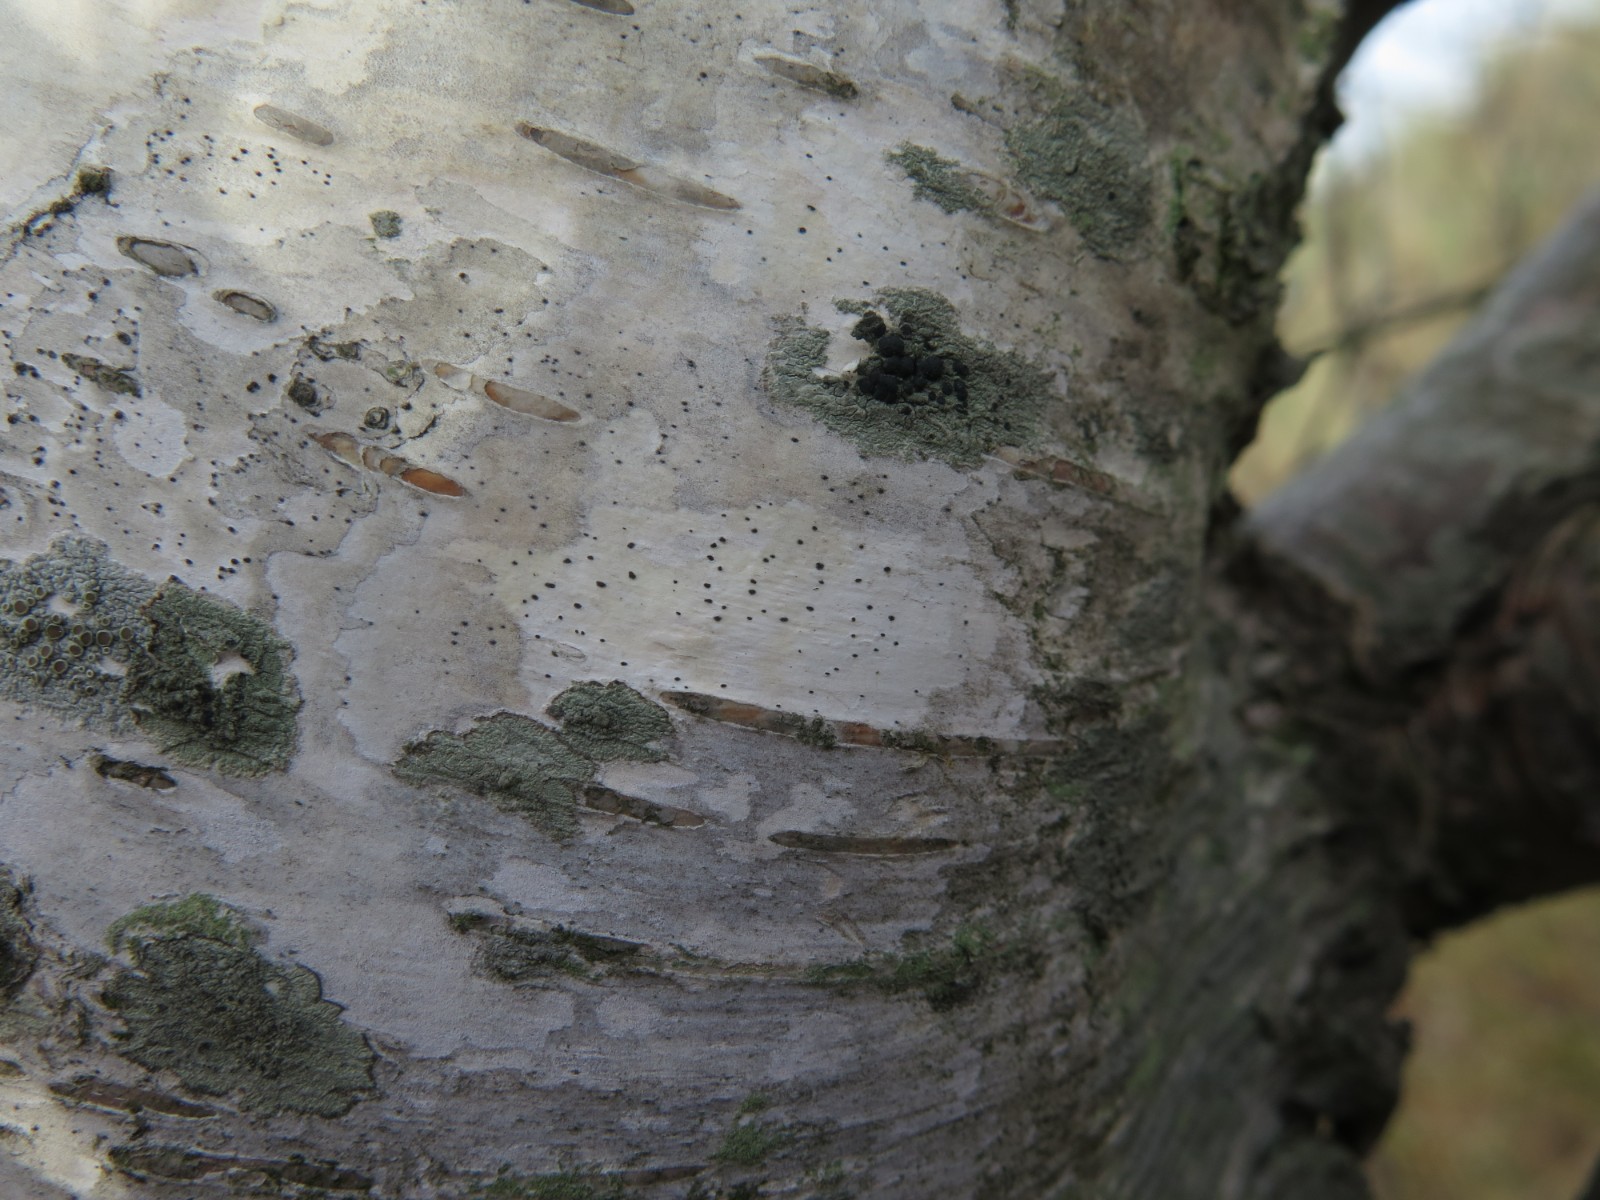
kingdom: Fungi
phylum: Ascomycota
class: Dothideomycetes
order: Pleosporales
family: Naetrocymbaceae
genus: Leptorhaphis
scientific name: Leptorhaphis epidermidis
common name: birke-barkplet
